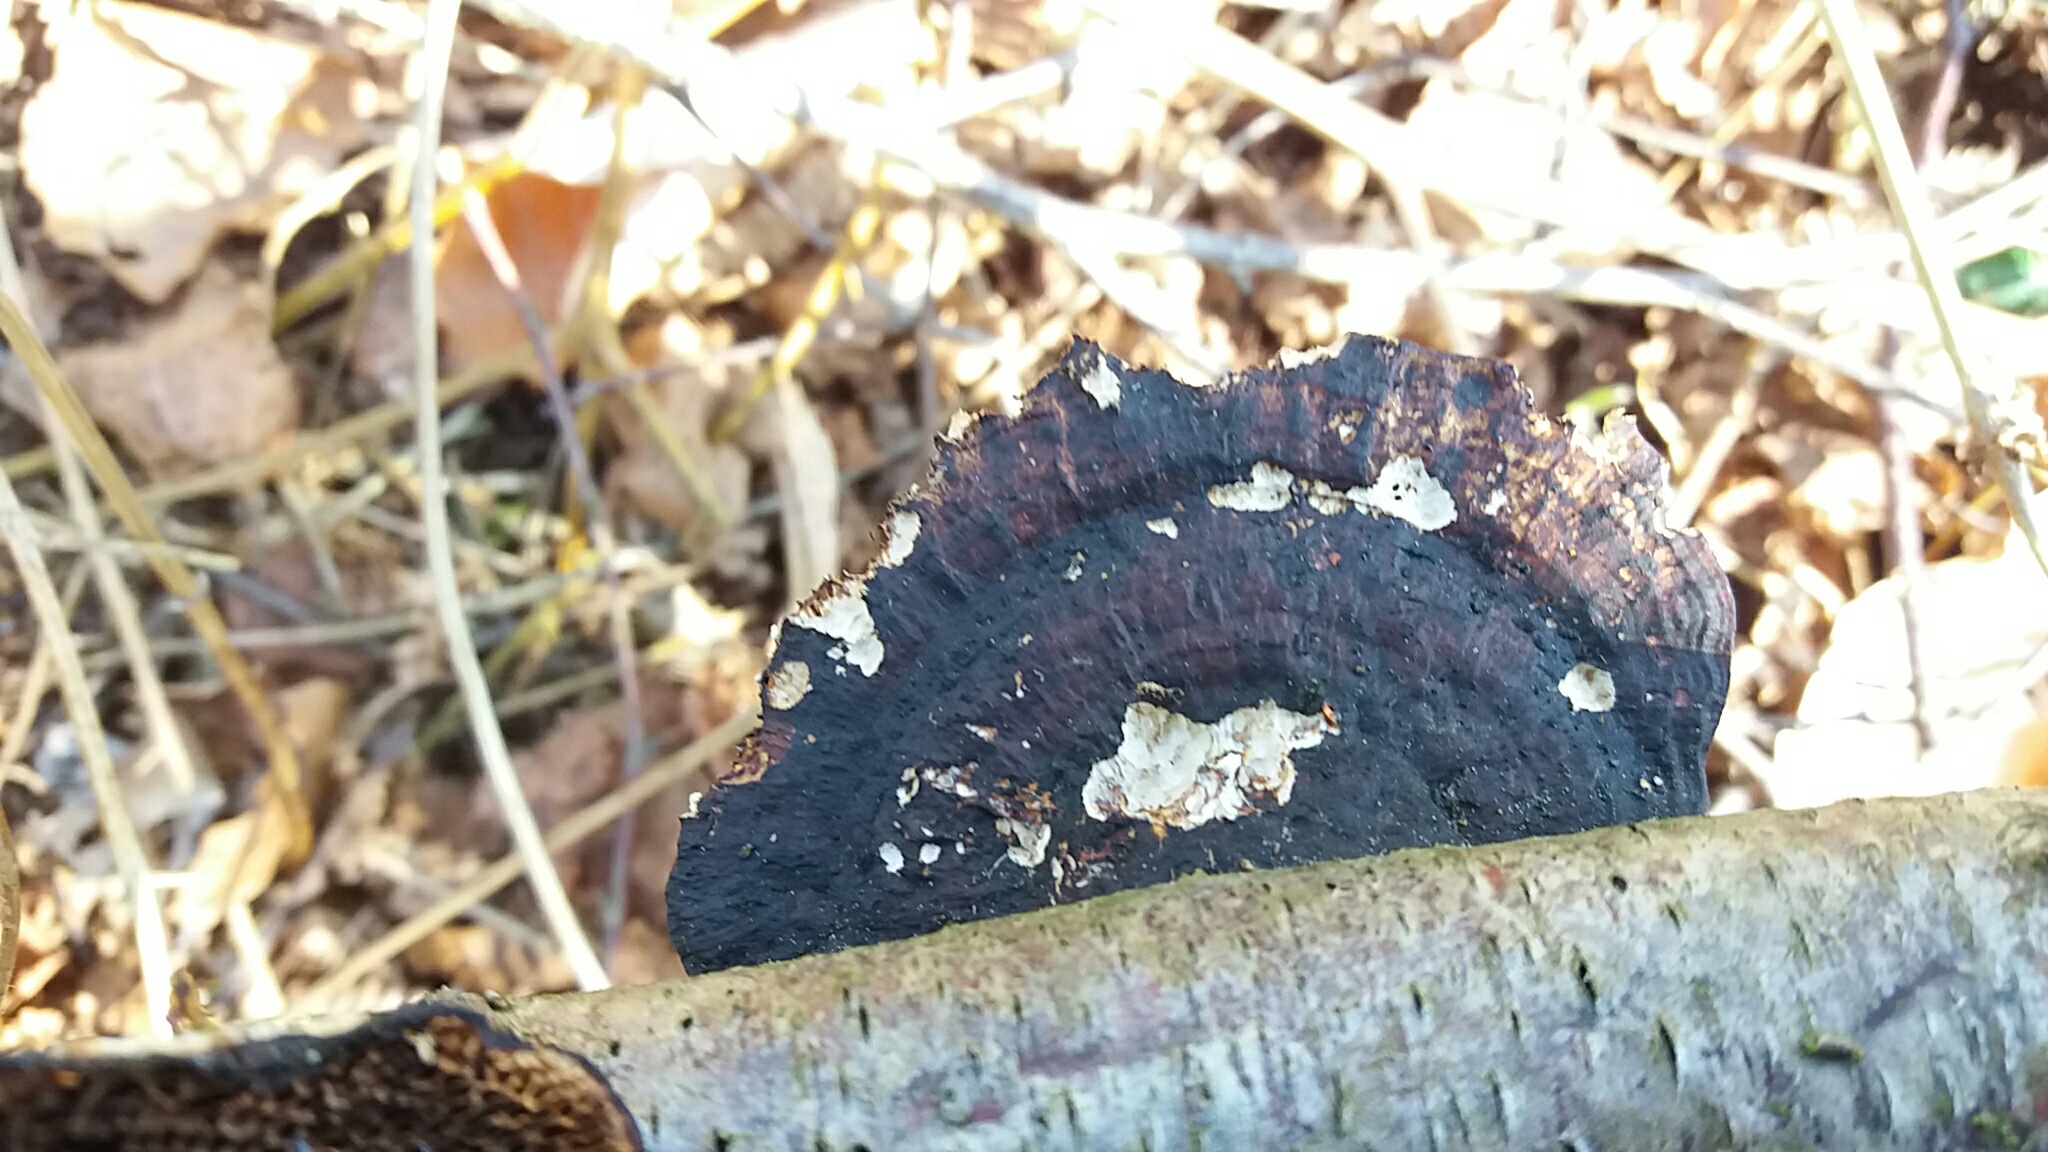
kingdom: Fungi
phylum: Basidiomycota
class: Agaricomycetes
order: Polyporales
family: Polyporaceae
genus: Daedaleopsis
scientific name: Daedaleopsis confragosa
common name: rødmende læderporesvamp
